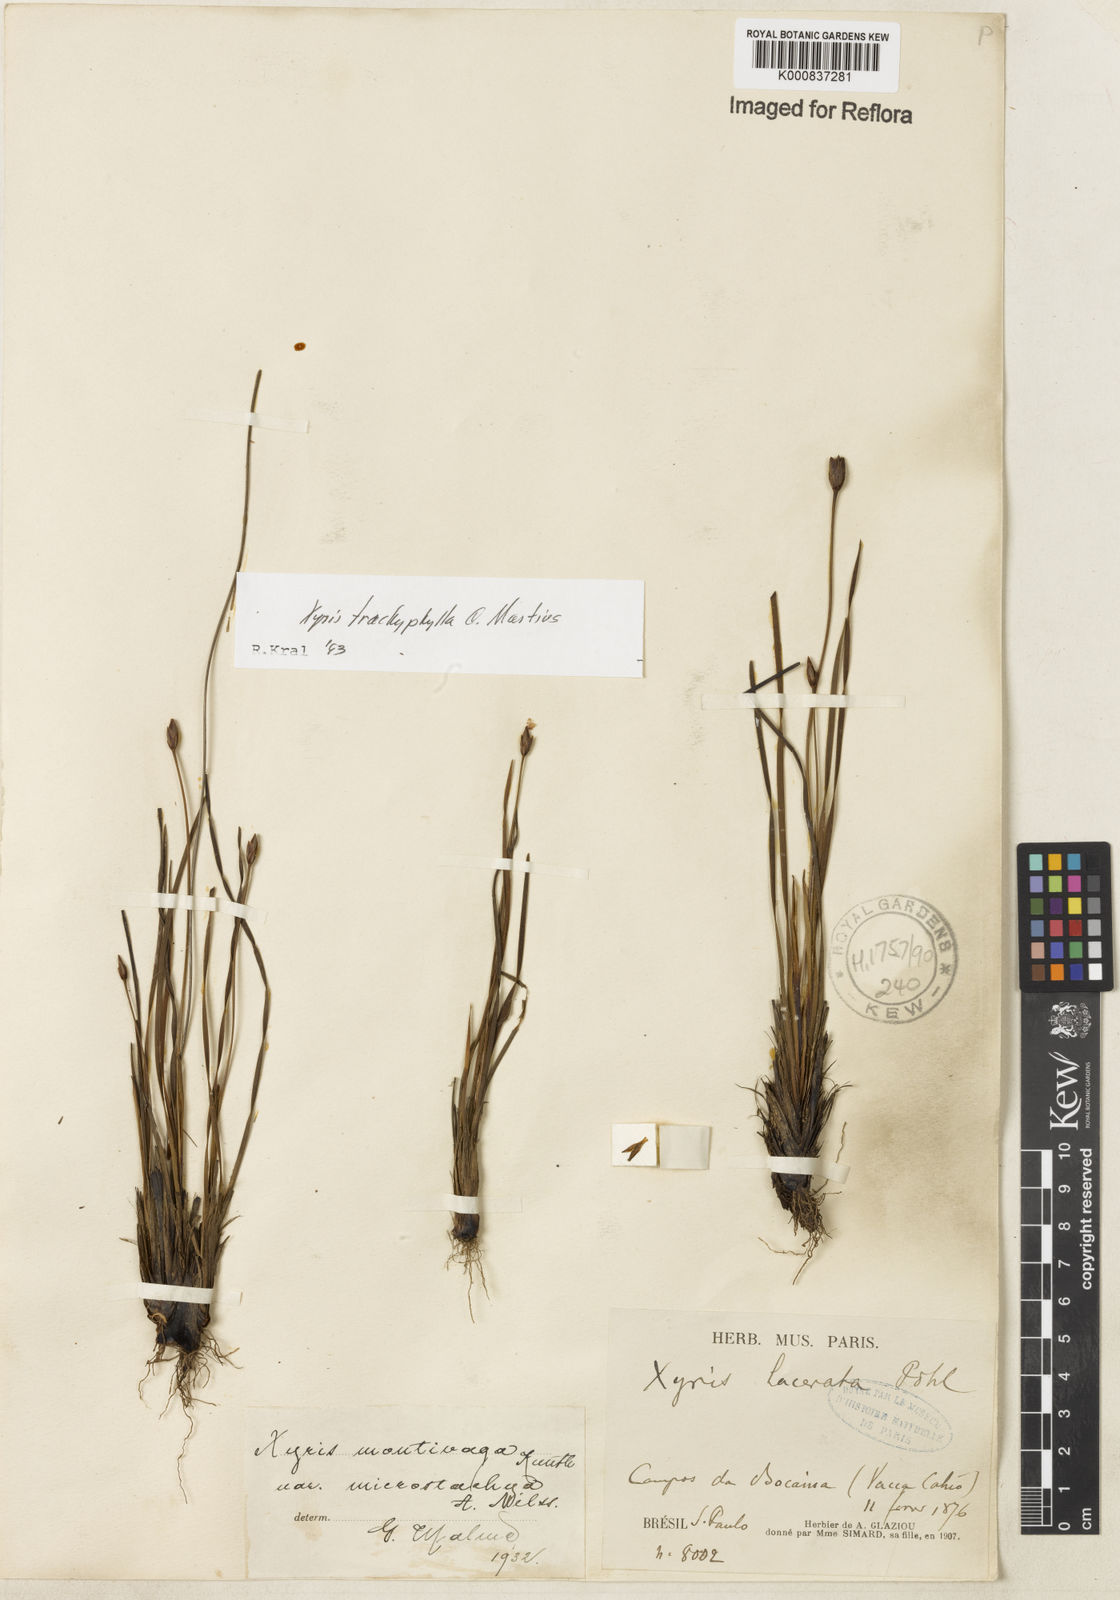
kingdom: Plantae
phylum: Tracheophyta
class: Liliopsida
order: Poales
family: Xyridaceae
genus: Xyris
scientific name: Xyris trachyphylla
